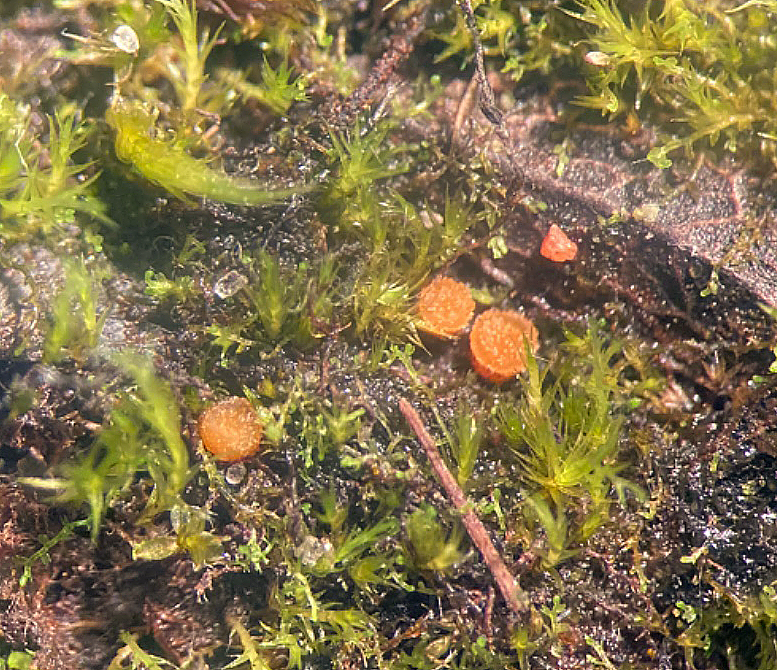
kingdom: Fungi
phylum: Ascomycota
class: Pezizomycetes
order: Pezizales
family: Pyronemataceae
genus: Octospora
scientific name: Octospora maireana
